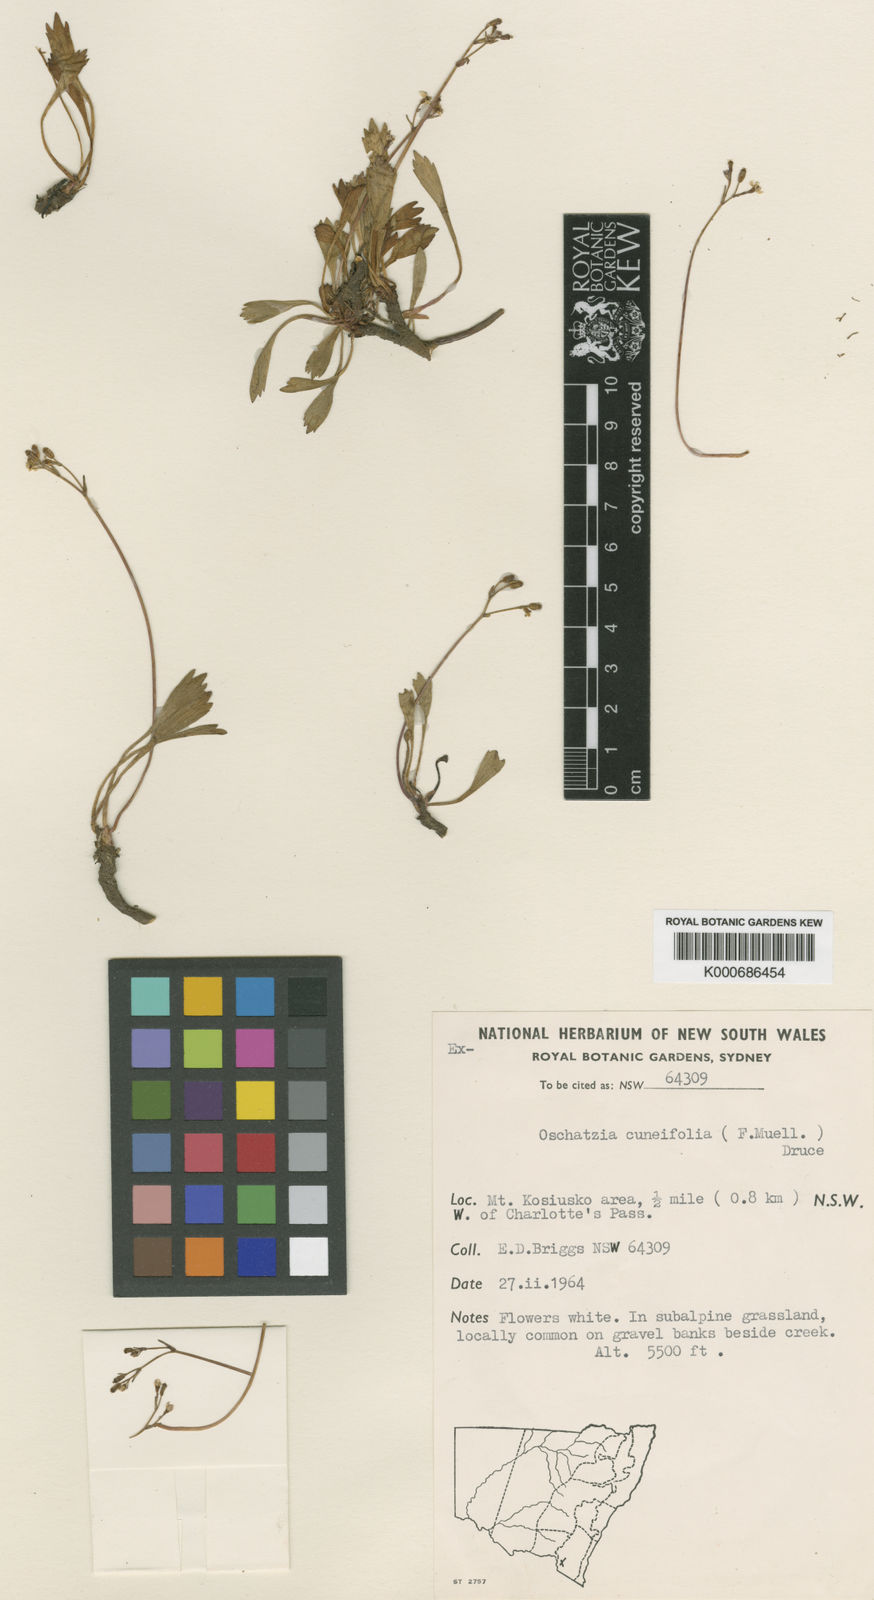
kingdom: Plantae
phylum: Tracheophyta
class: Magnoliopsida
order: Apiales
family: Apiaceae
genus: Oschatzia
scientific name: Oschatzia cuneifolia
